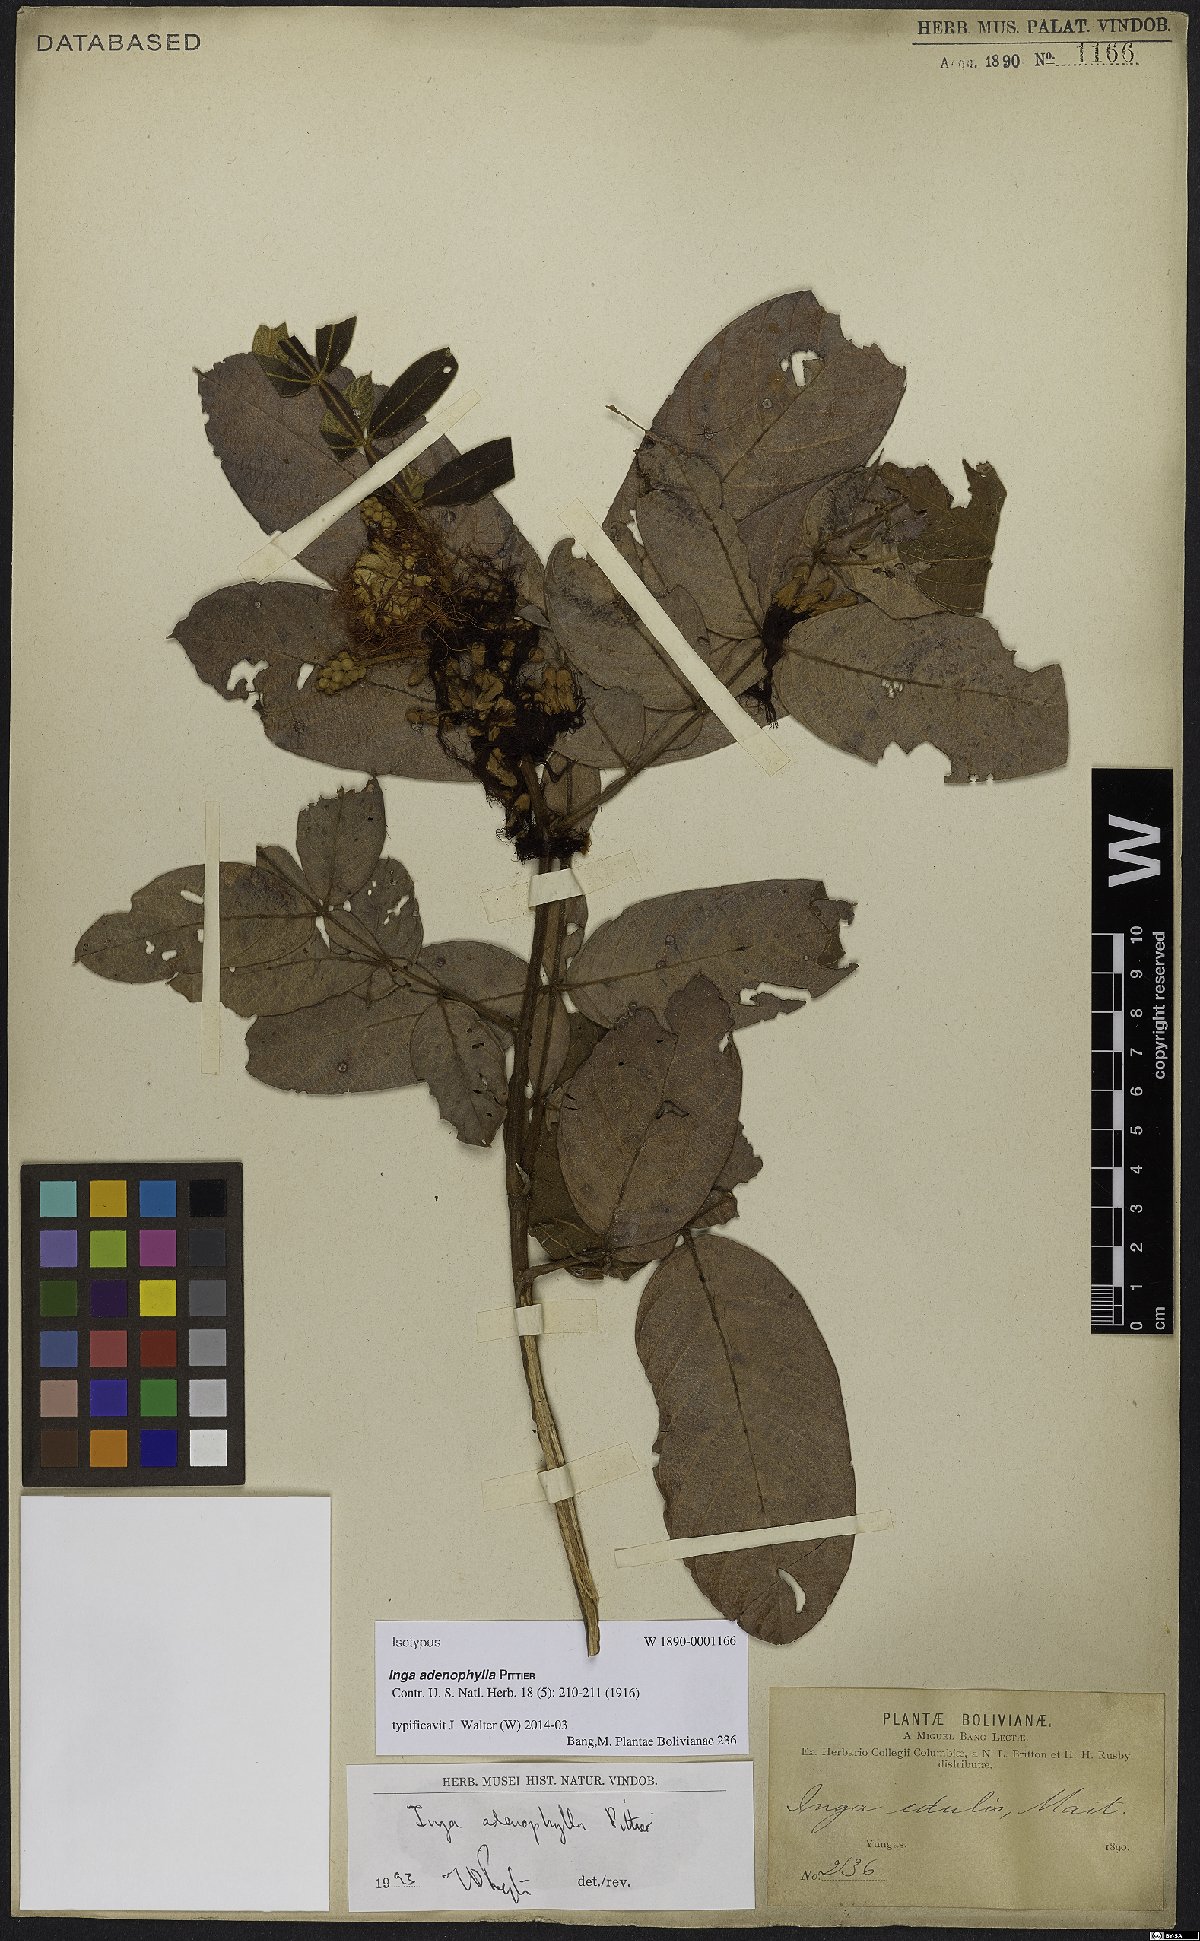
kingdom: Plantae
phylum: Tracheophyta
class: Magnoliopsida
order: Fabales
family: Fabaceae
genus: Inga
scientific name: Inga adenophylla
